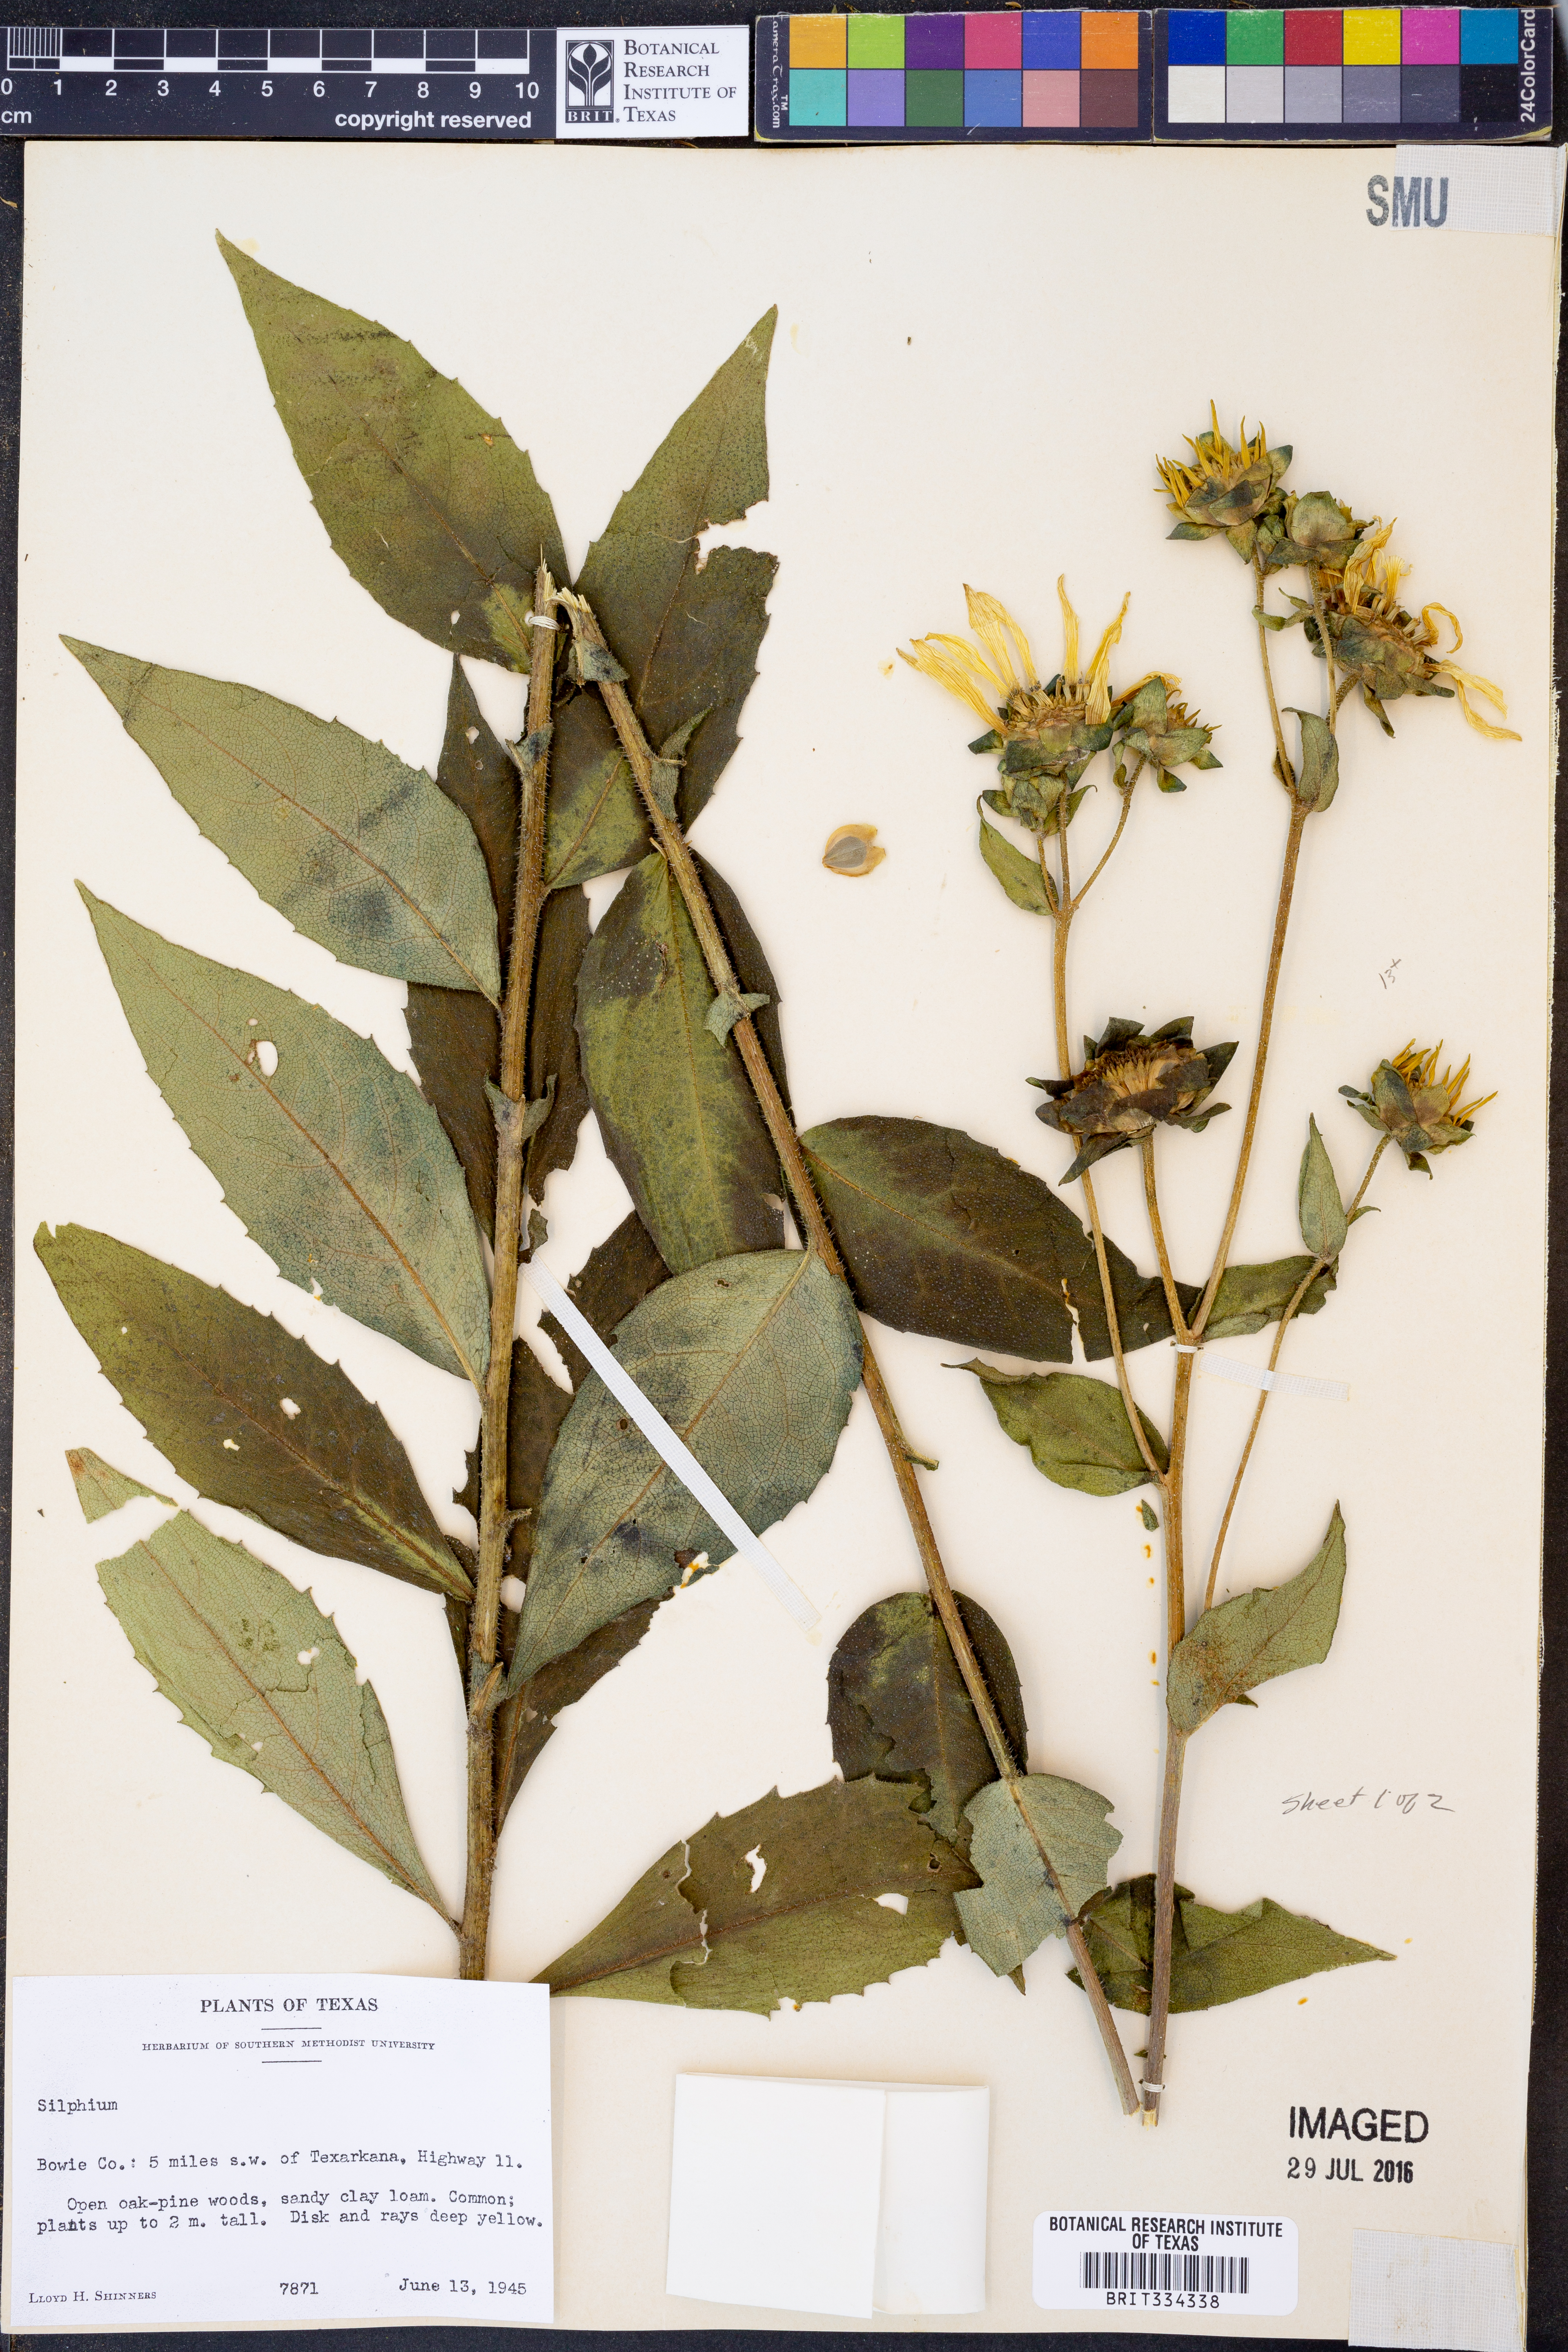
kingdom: Plantae
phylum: Tracheophyta
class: Magnoliopsida
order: Asterales
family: Asteraceae
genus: Silphium
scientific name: Silphium
